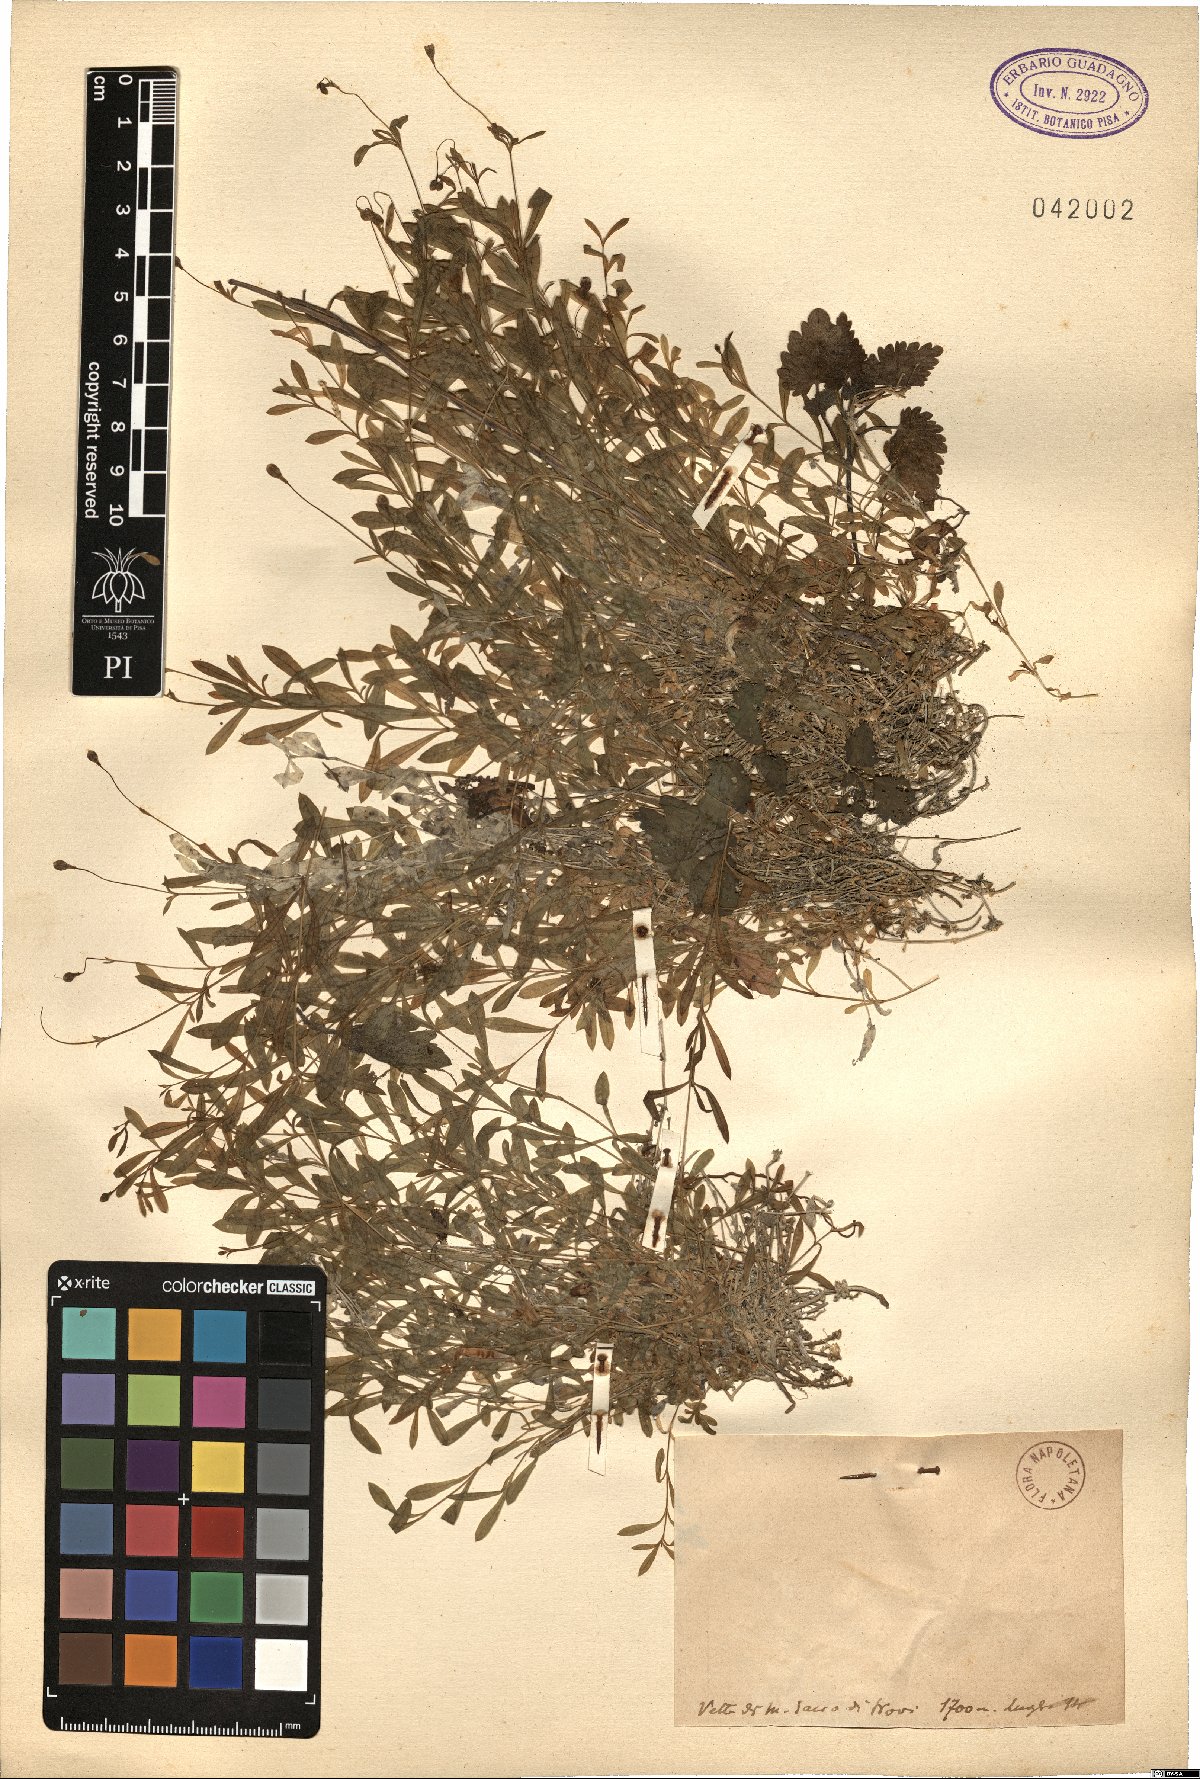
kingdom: Plantae
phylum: Tracheophyta
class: Magnoliopsida
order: Caryophyllales
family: Caryophyllaceae
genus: Silene
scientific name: Silene
